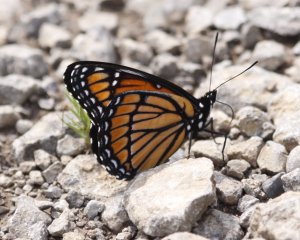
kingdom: Animalia
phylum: Arthropoda
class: Insecta
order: Lepidoptera
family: Nymphalidae
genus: Limenitis
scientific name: Limenitis archippus
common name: Viceroy
